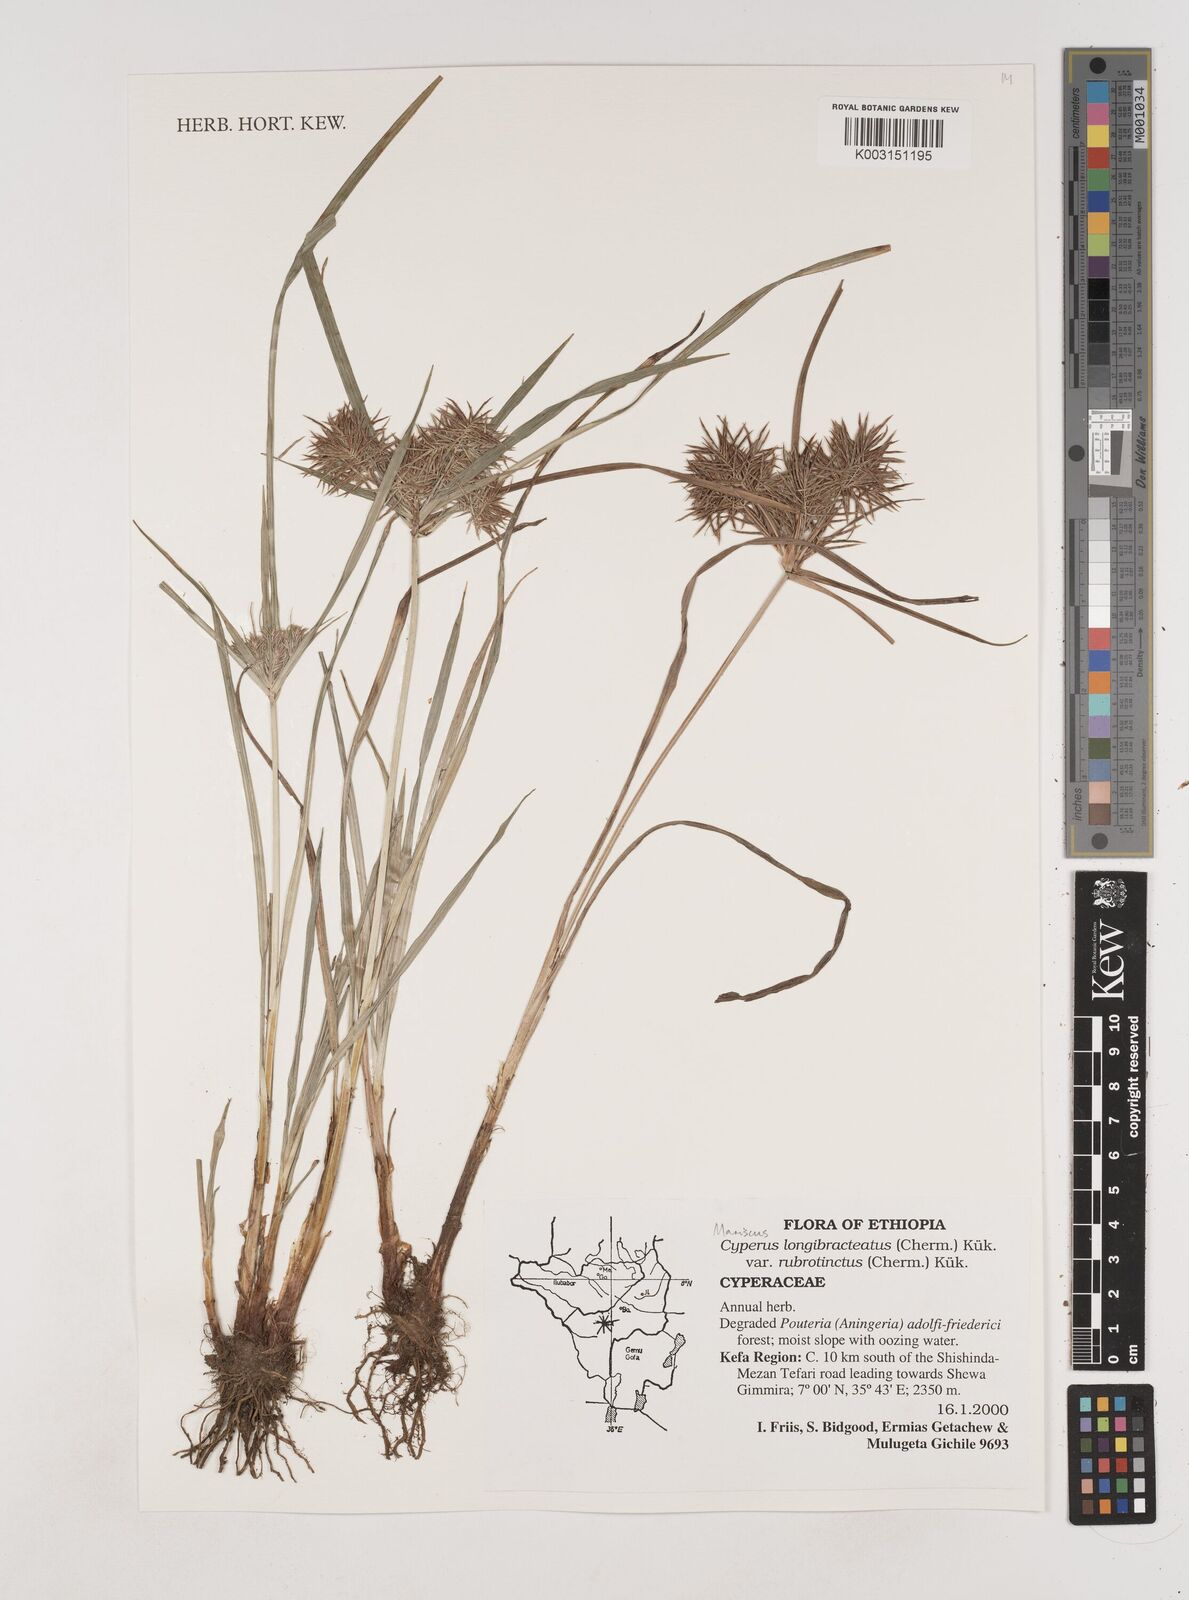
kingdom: Plantae
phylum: Tracheophyta
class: Liliopsida
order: Poales
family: Cyperaceae
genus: Cyperus
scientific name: Cyperus distans
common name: Slender cyperus
